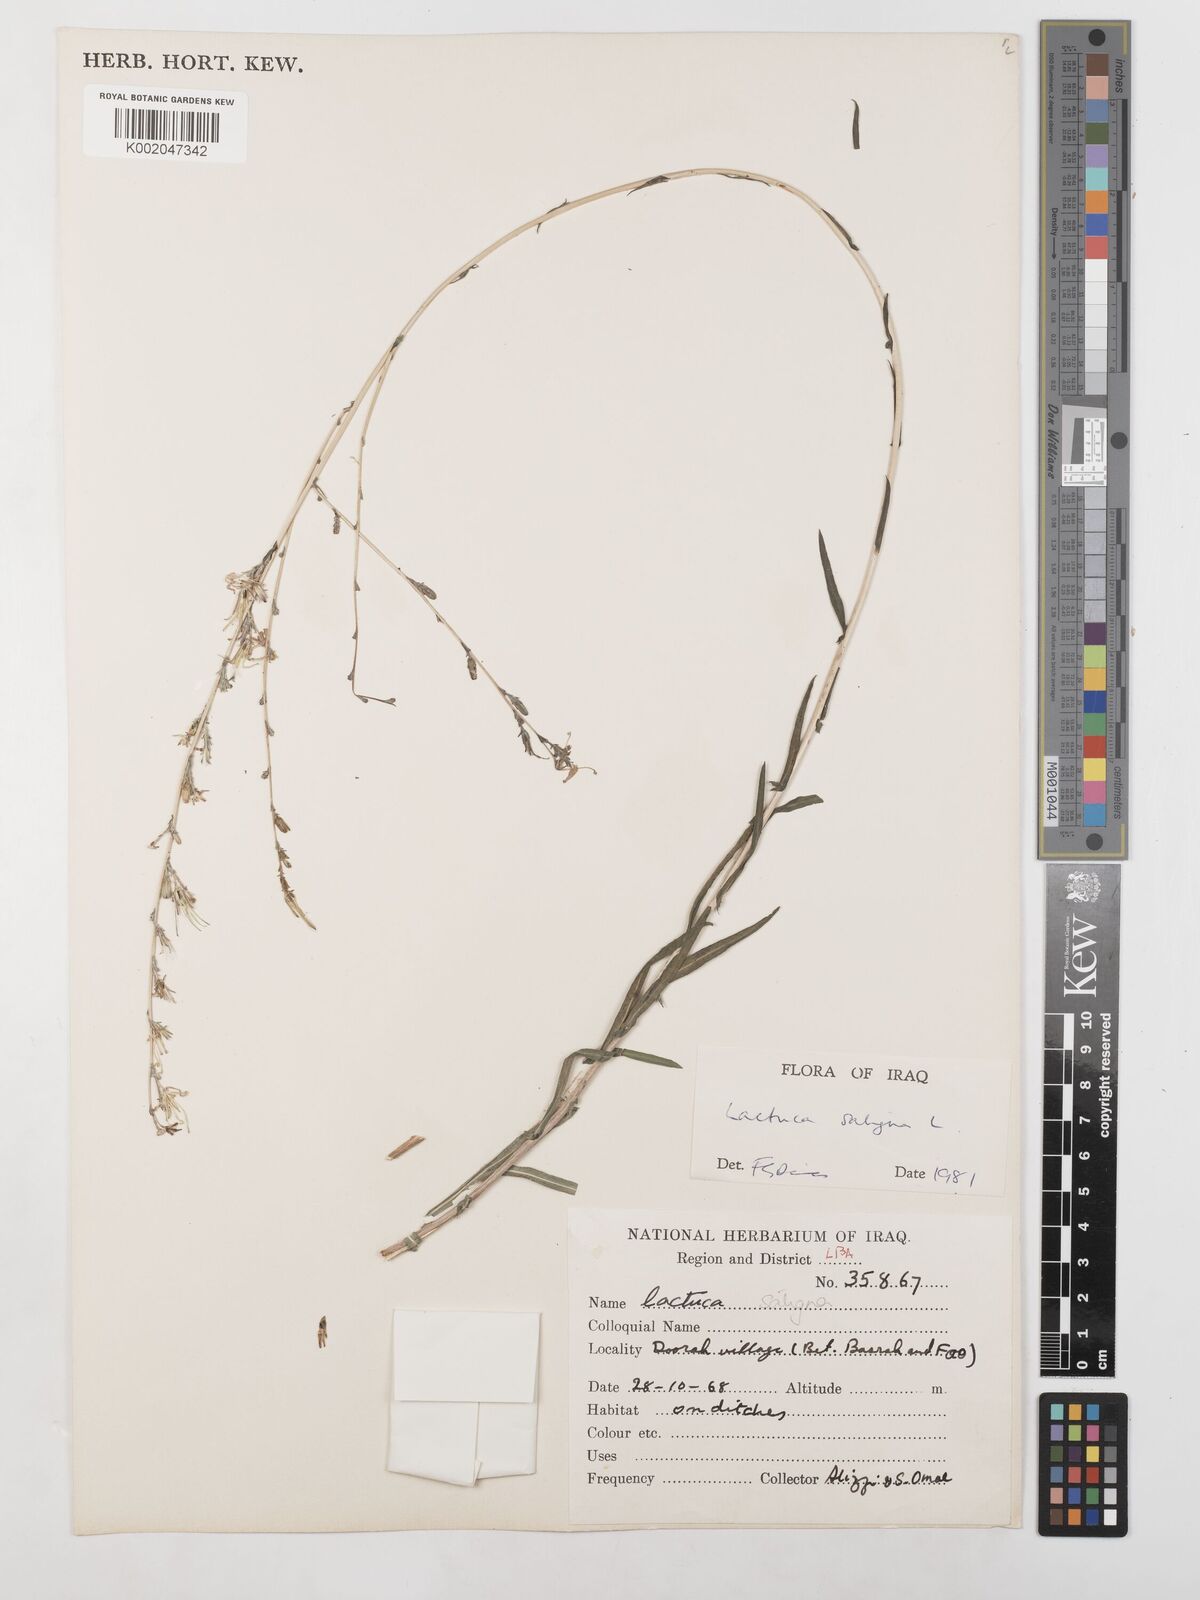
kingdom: Plantae
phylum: Tracheophyta
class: Magnoliopsida
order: Asterales
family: Asteraceae
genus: Lactuca
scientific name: Lactuca saligna
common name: Wild lettuce
